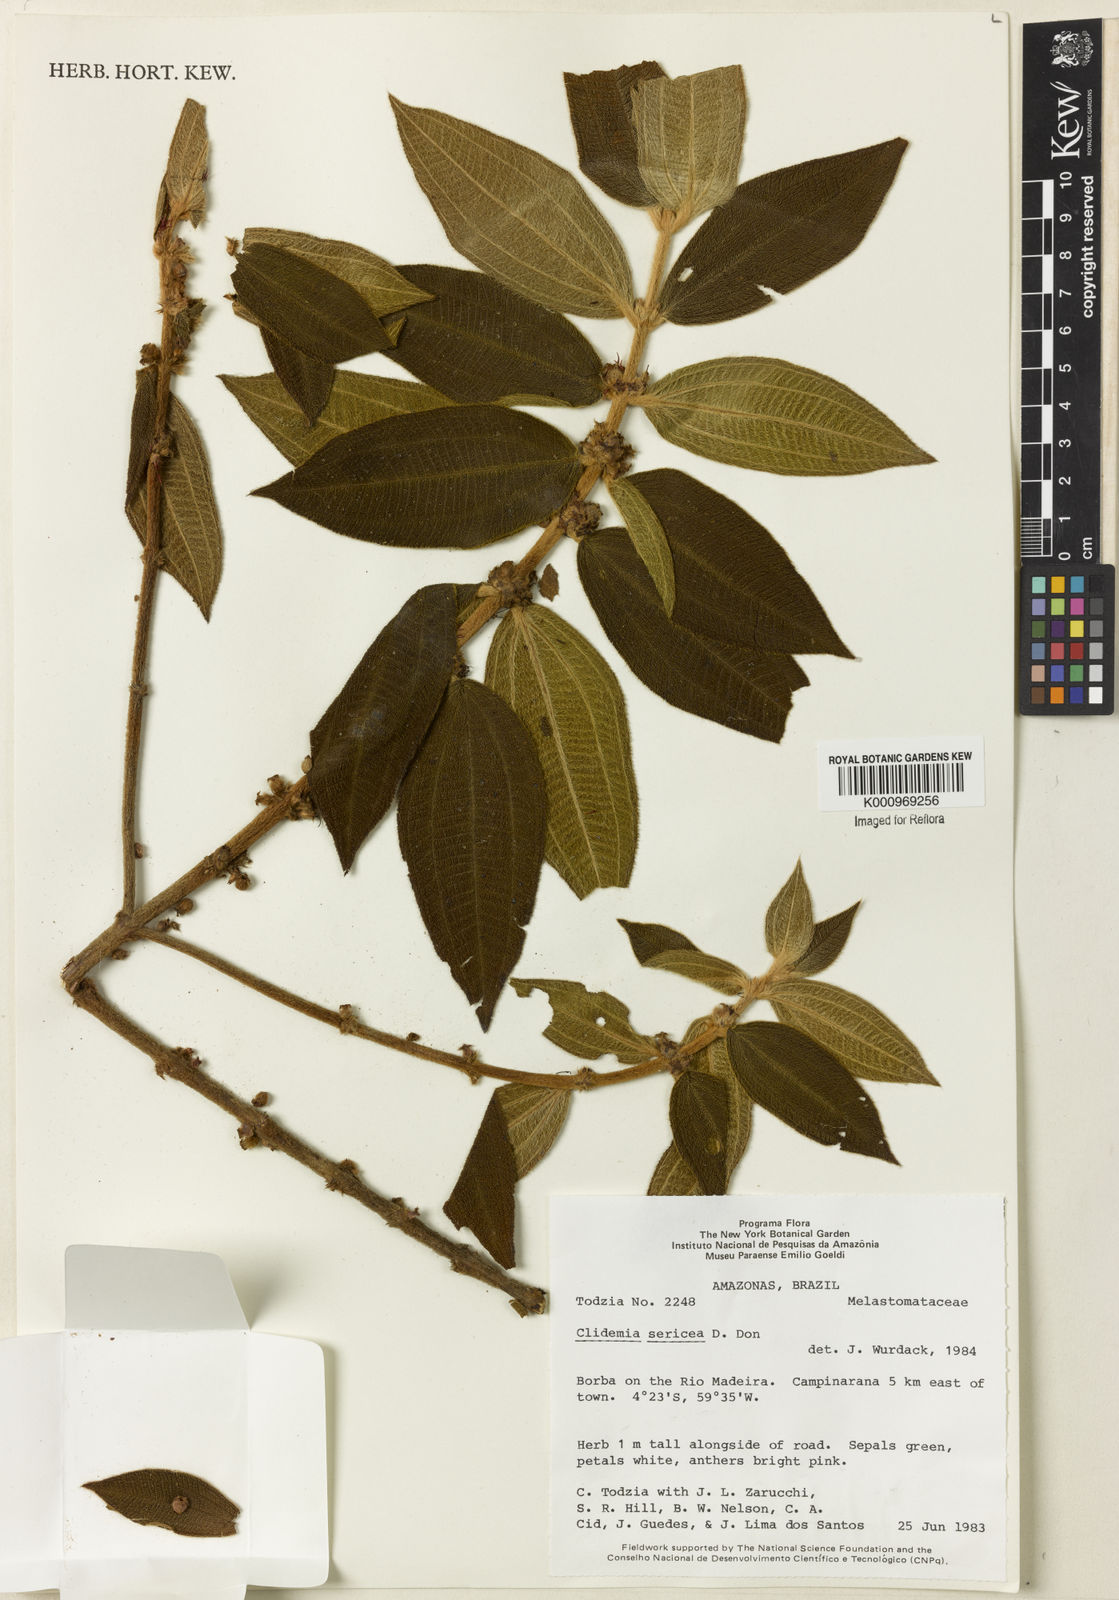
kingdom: Plantae
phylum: Tracheophyta
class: Magnoliopsida
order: Myrtales
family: Melastomataceae
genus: Miconia
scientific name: Miconia sericea
